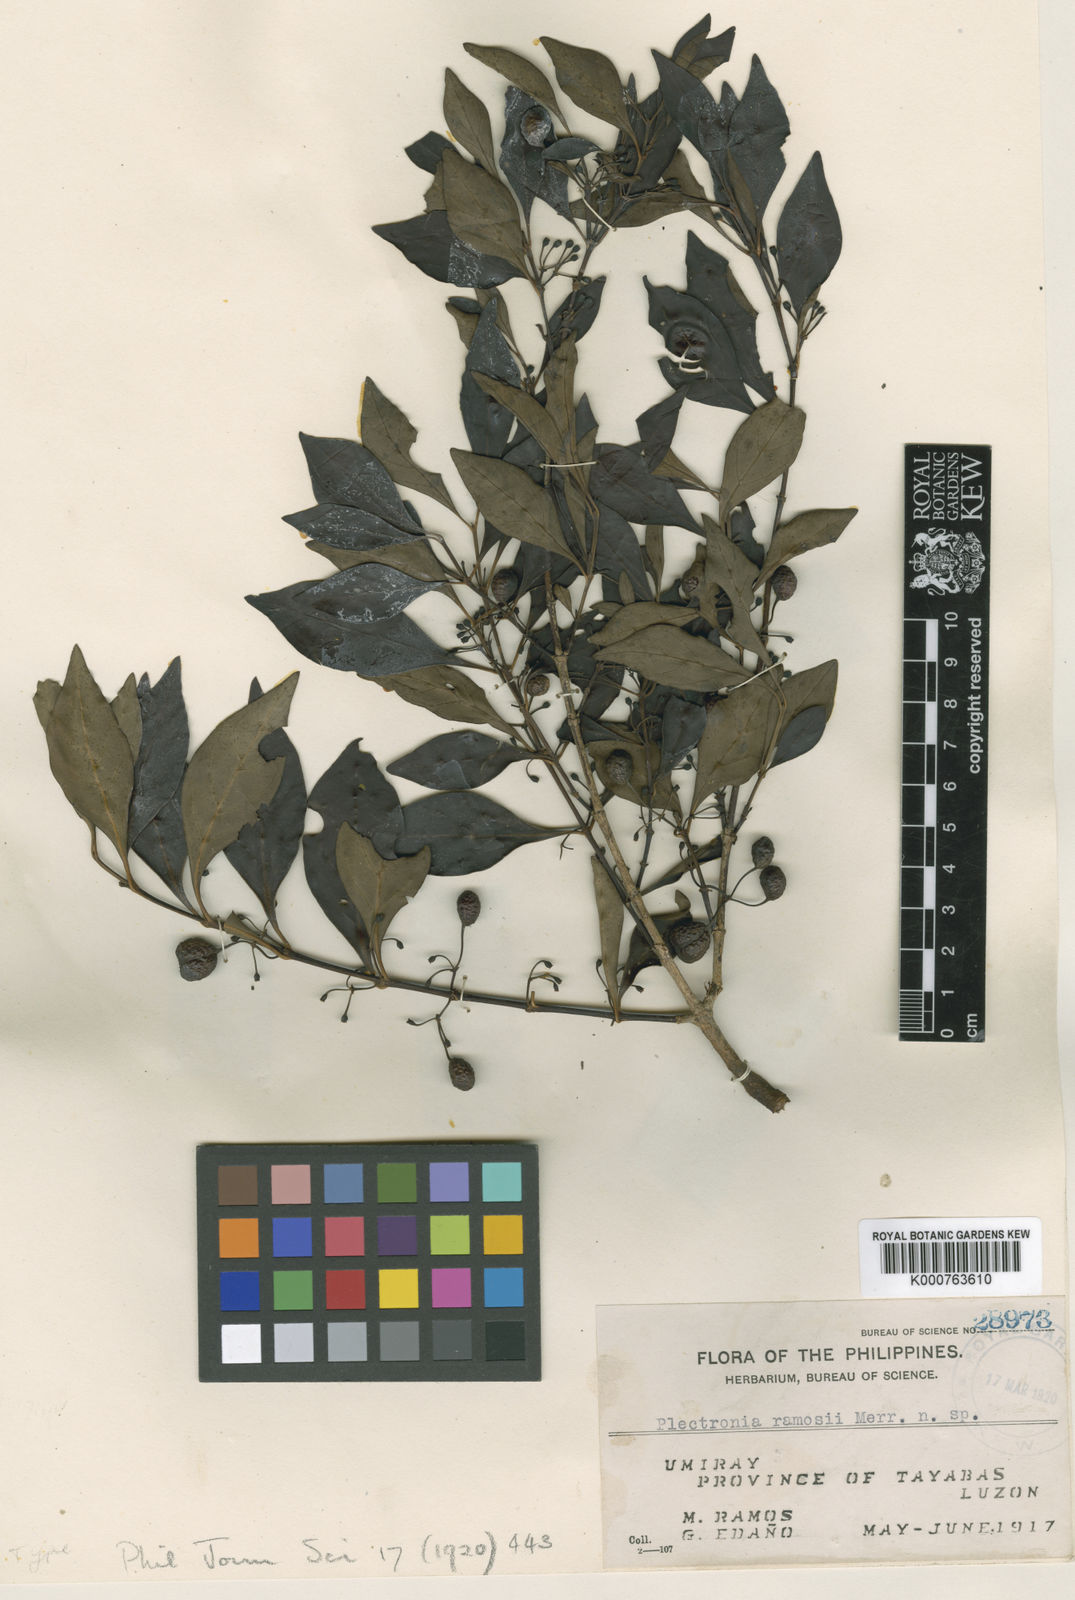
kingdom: Plantae
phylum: Tracheophyta
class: Magnoliopsida
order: Gentianales
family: Rubiaceae
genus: Pyrostria
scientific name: Pyrostria ramosii
